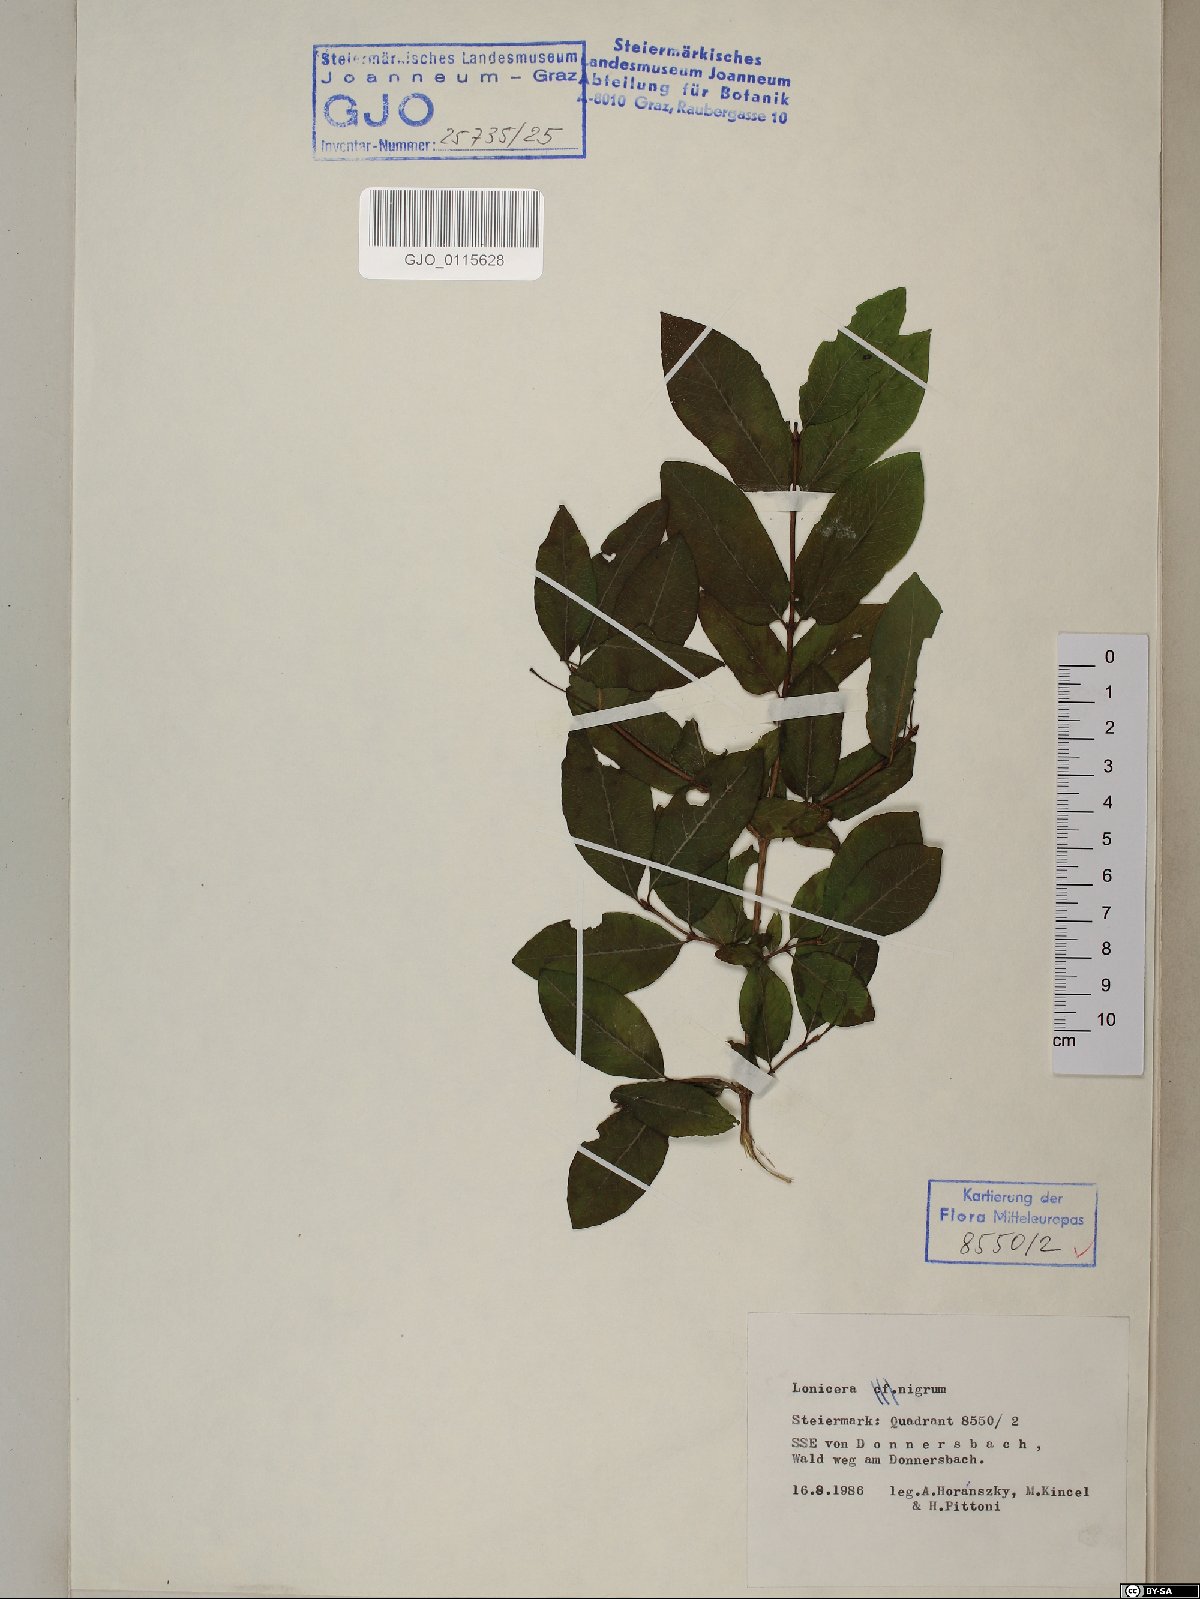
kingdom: Plantae
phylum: Tracheophyta
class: Magnoliopsida
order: Dipsacales
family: Caprifoliaceae
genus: Lonicera
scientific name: Lonicera nigra
